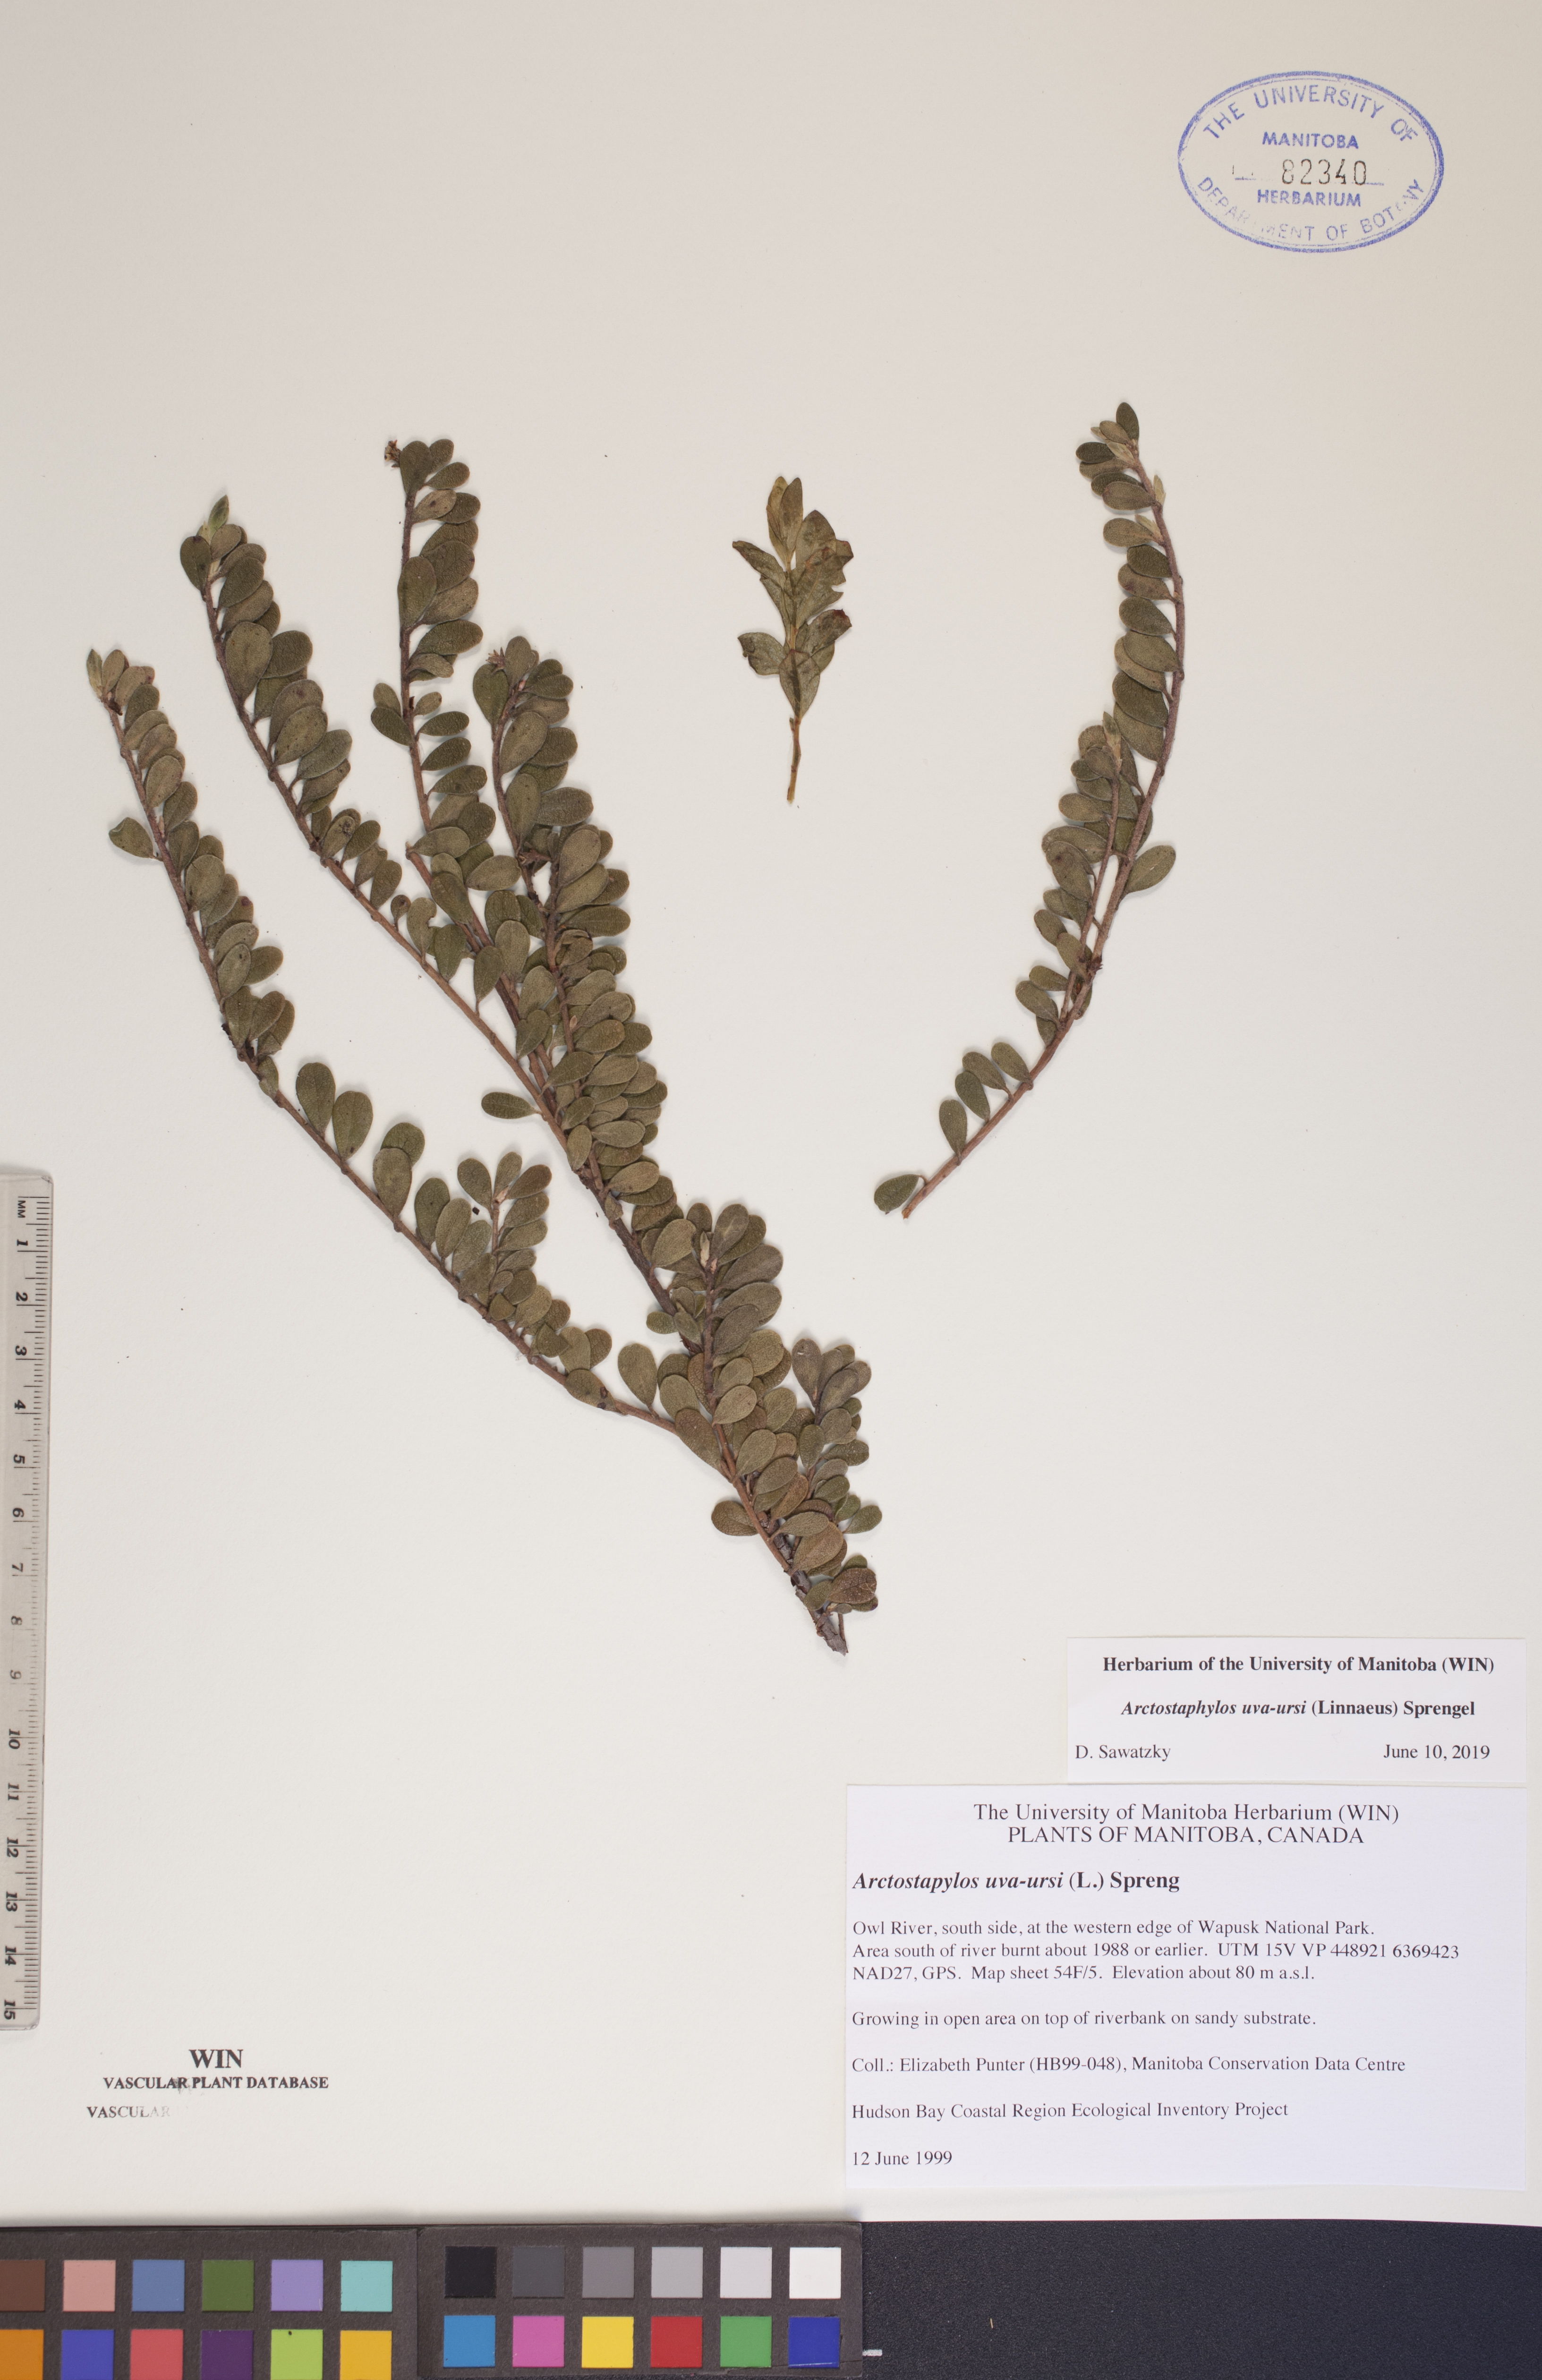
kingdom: Plantae
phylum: Tracheophyta
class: Magnoliopsida
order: Ericales
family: Ericaceae
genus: Arctostaphylos
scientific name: Arctostaphylos uva-ursi
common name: Bearberry
